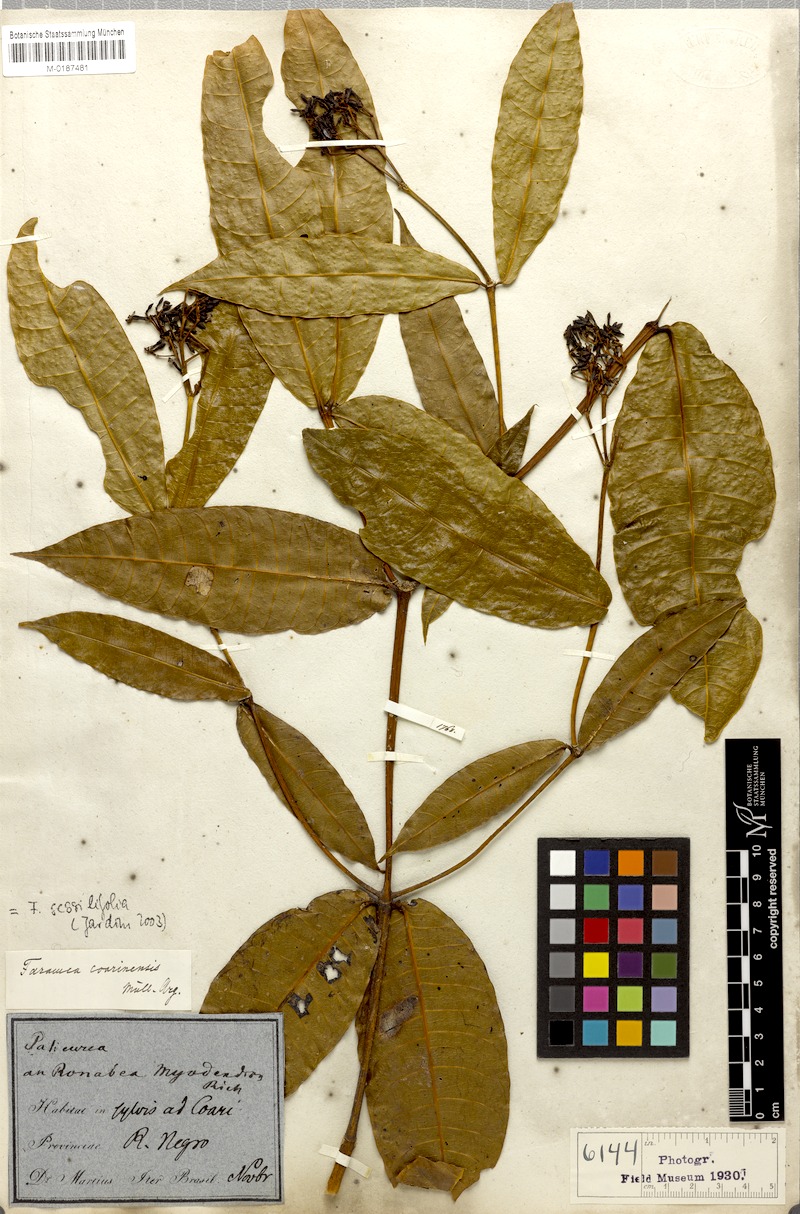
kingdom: Plantae
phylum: Tracheophyta
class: Magnoliopsida
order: Gentianales
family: Rubiaceae
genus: Faramea
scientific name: Faramea sessilifolia
